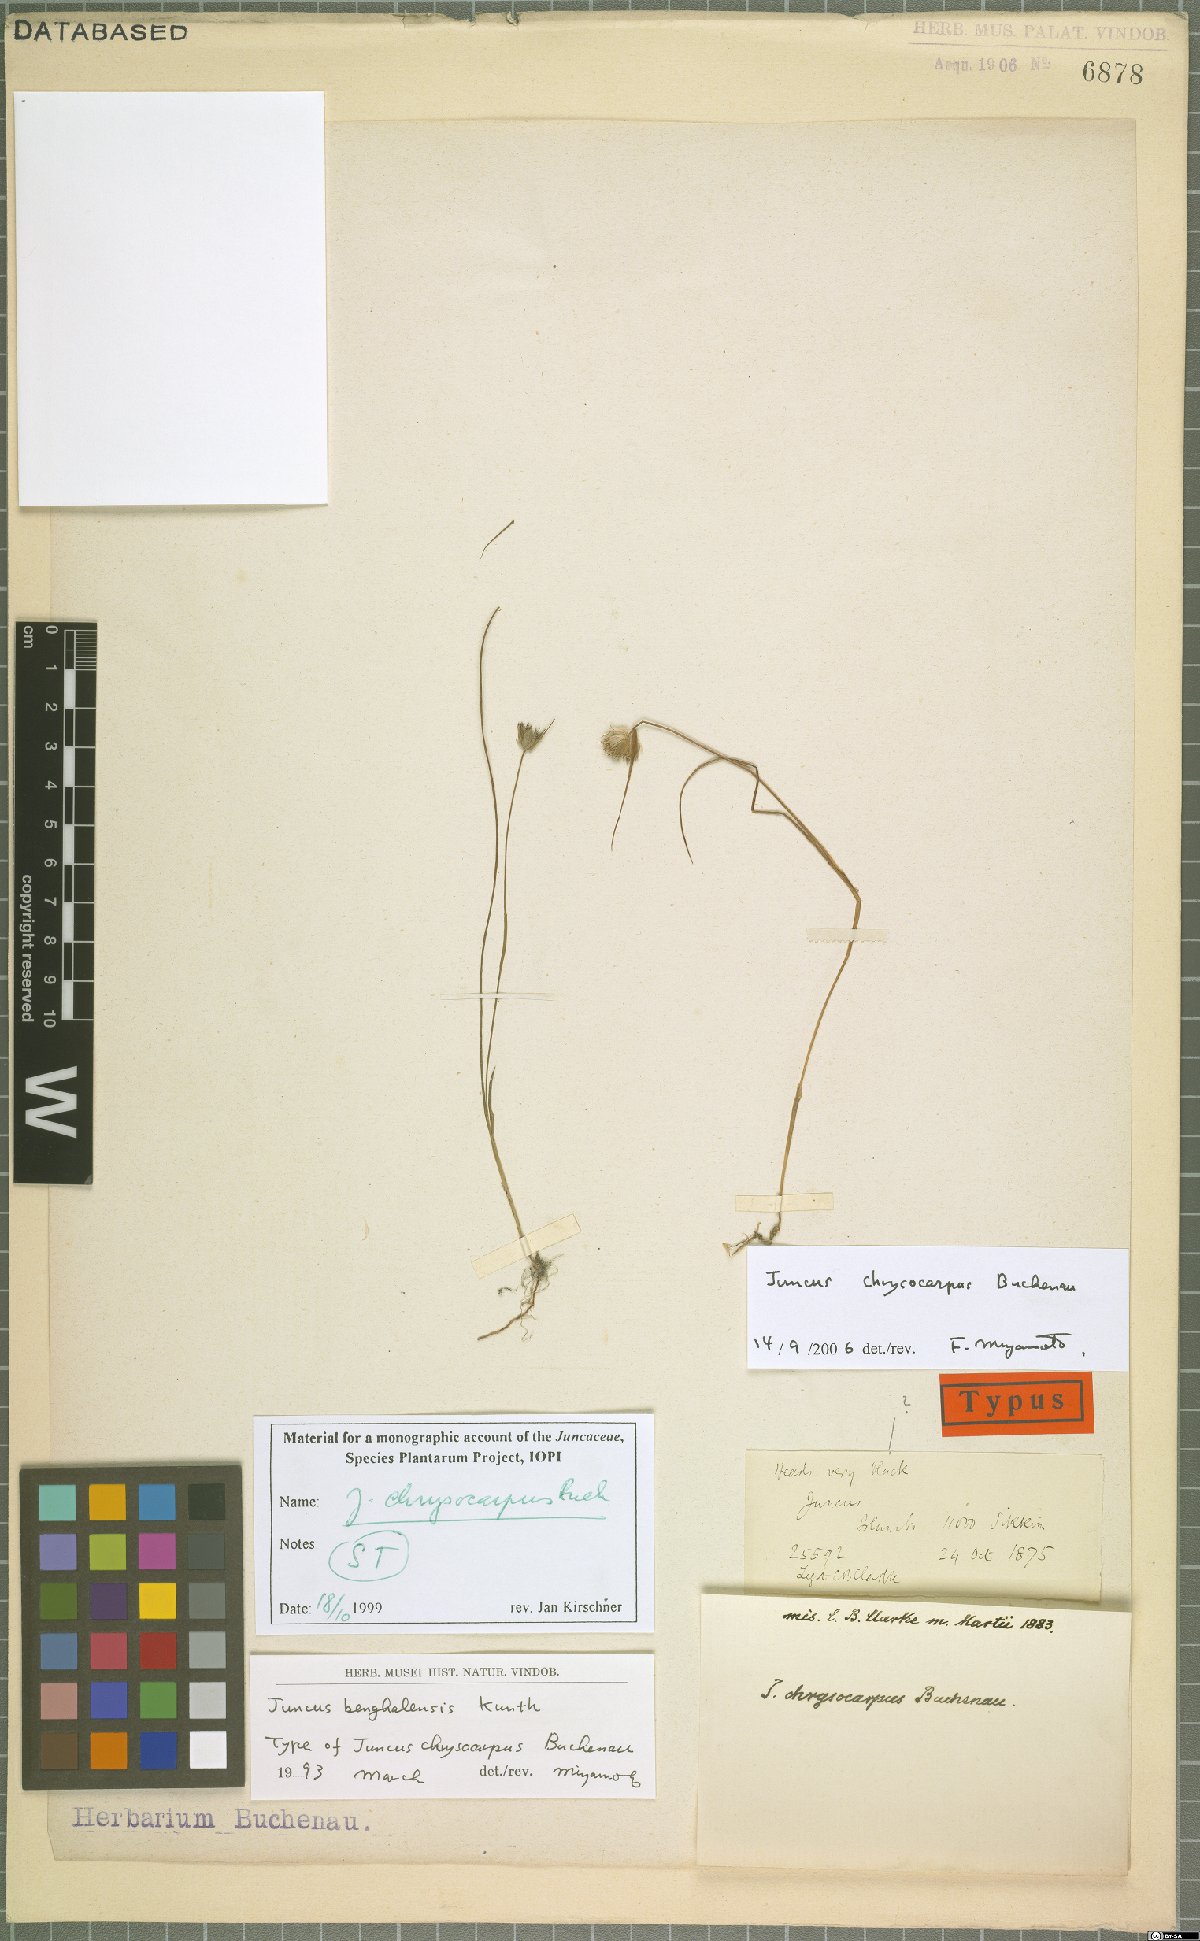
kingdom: Plantae
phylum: Tracheophyta
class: Liliopsida
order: Poales
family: Juncaceae
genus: Juncus
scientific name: Juncus chrysocarpus
